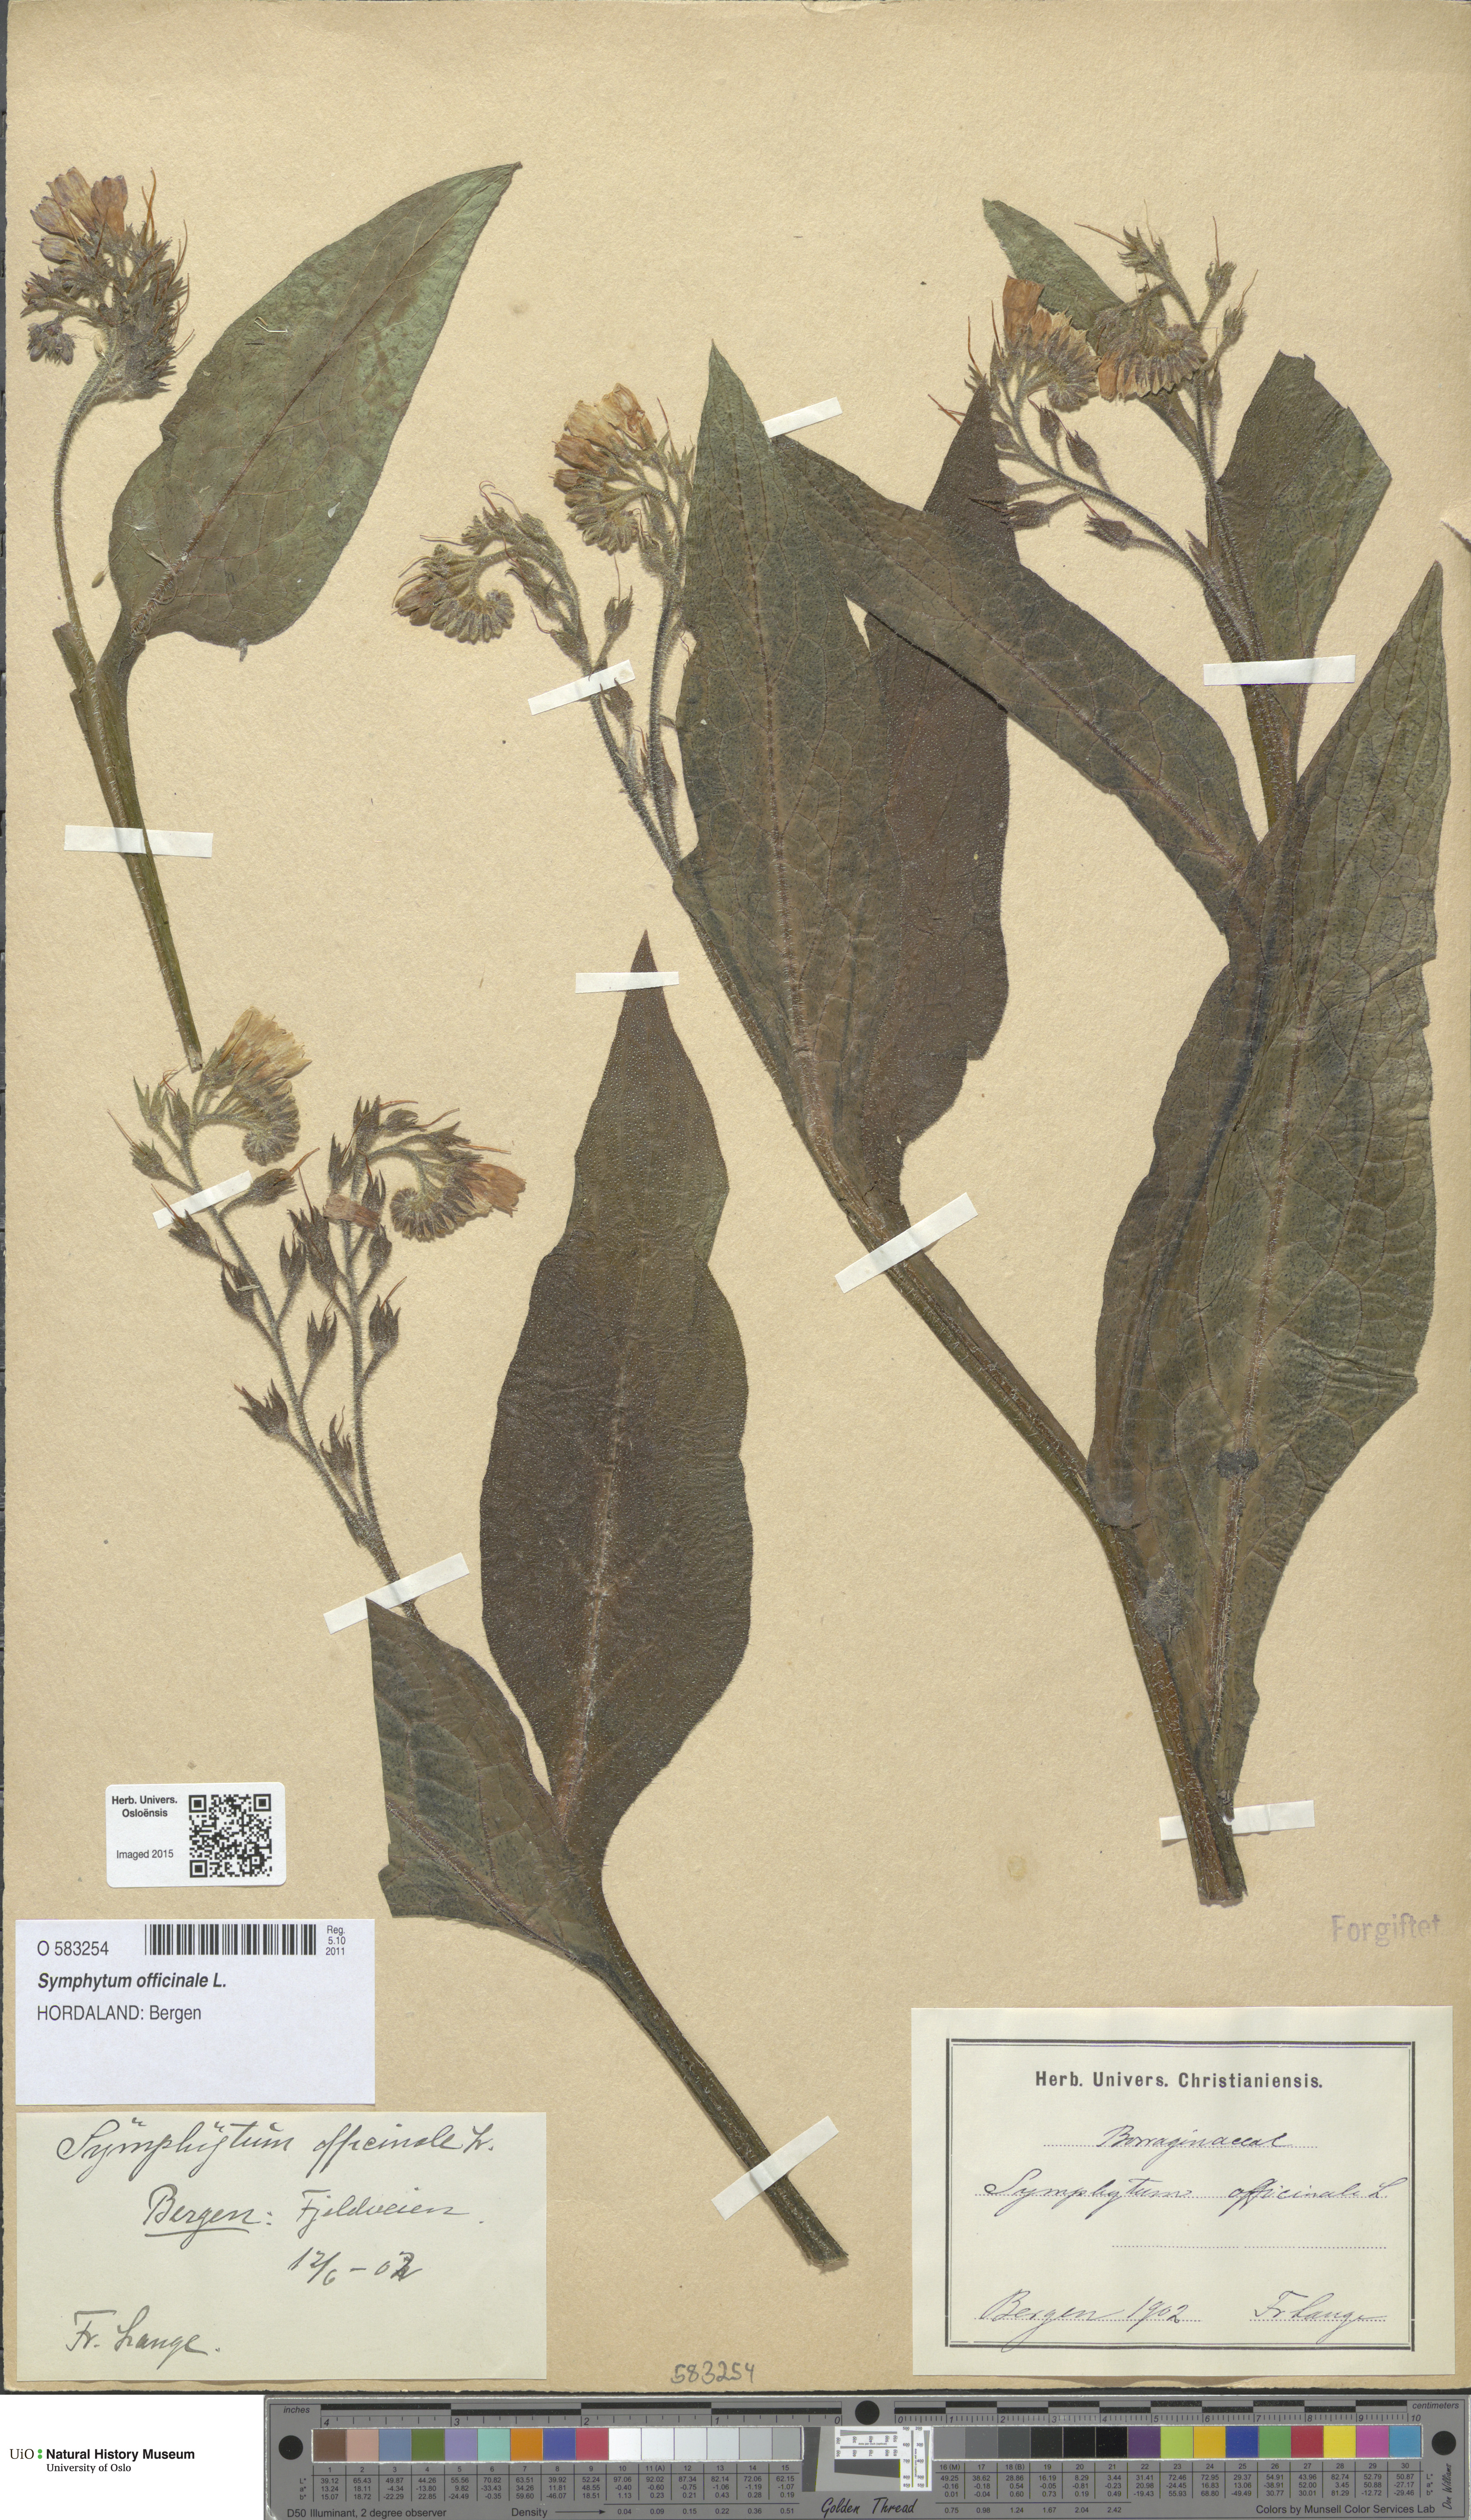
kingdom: Plantae
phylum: Tracheophyta
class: Magnoliopsida
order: Boraginales
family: Boraginaceae
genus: Symphytum
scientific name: Symphytum officinale
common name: Common comfrey
